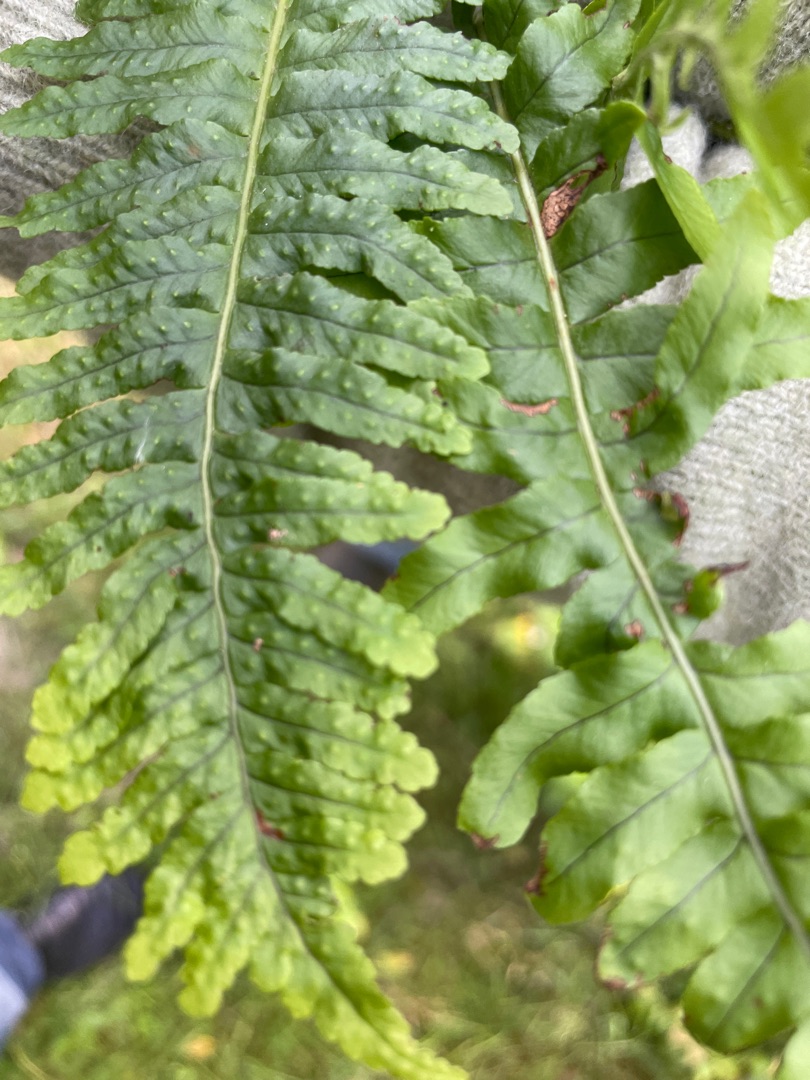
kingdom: Plantae
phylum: Tracheophyta
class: Polypodiopsida
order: Polypodiales
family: Polypodiaceae
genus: Polypodium
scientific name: Polypodium vulgare
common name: Almindelig engelsød
